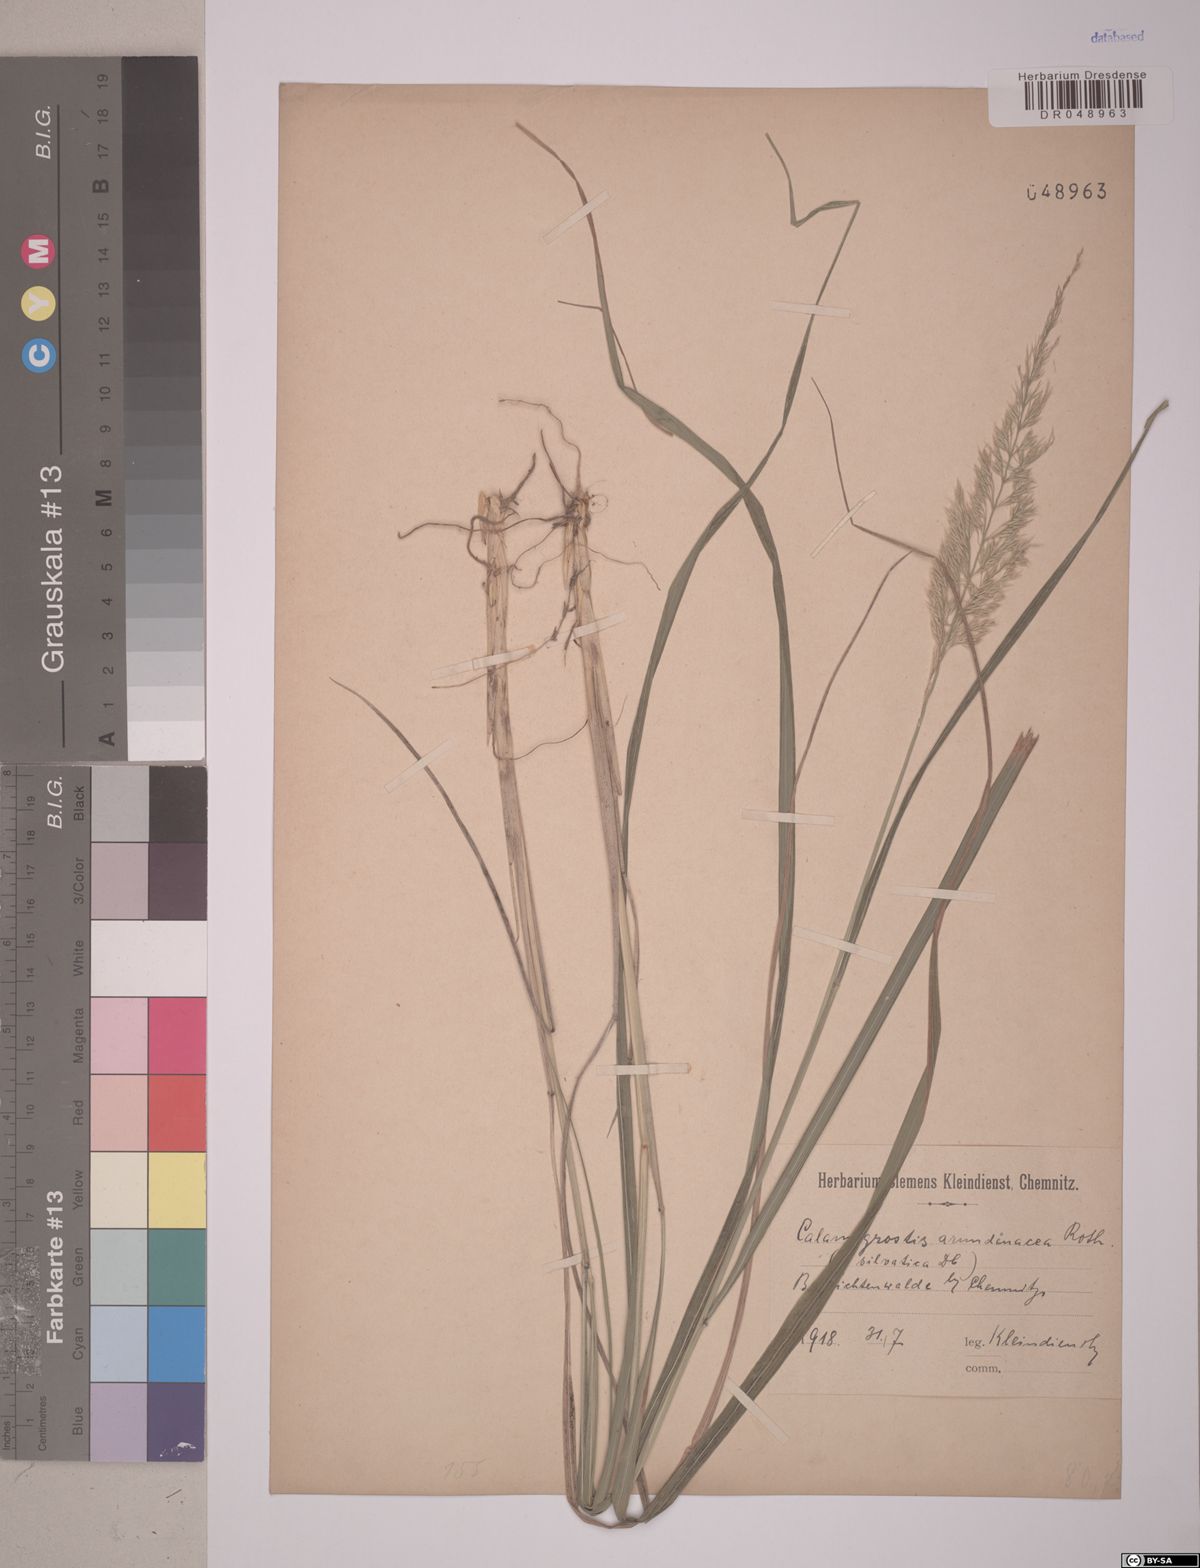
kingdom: Plantae
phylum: Tracheophyta
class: Liliopsida
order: Poales
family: Poaceae
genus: Calamagrostis
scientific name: Calamagrostis arundinacea
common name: Metskastik
